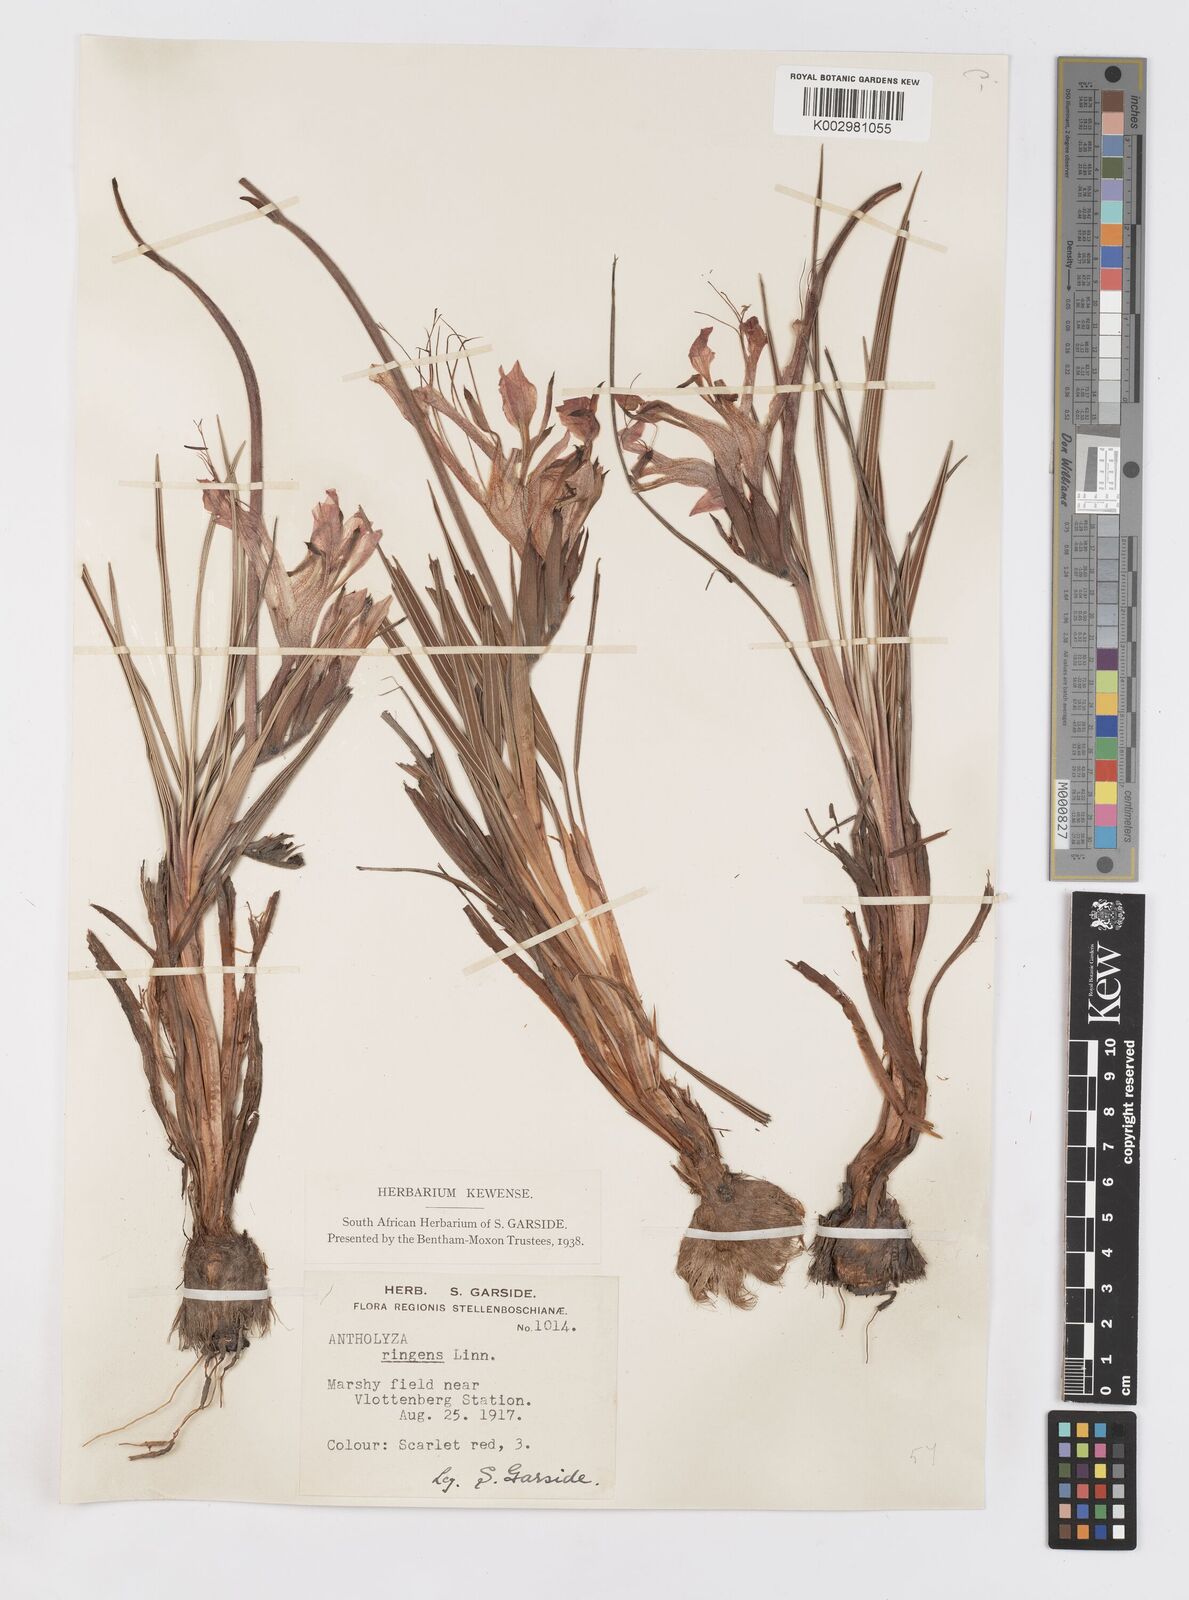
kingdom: Plantae
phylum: Tracheophyta
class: Liliopsida
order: Asparagales
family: Iridaceae
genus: Babiana
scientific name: Babiana ringens
